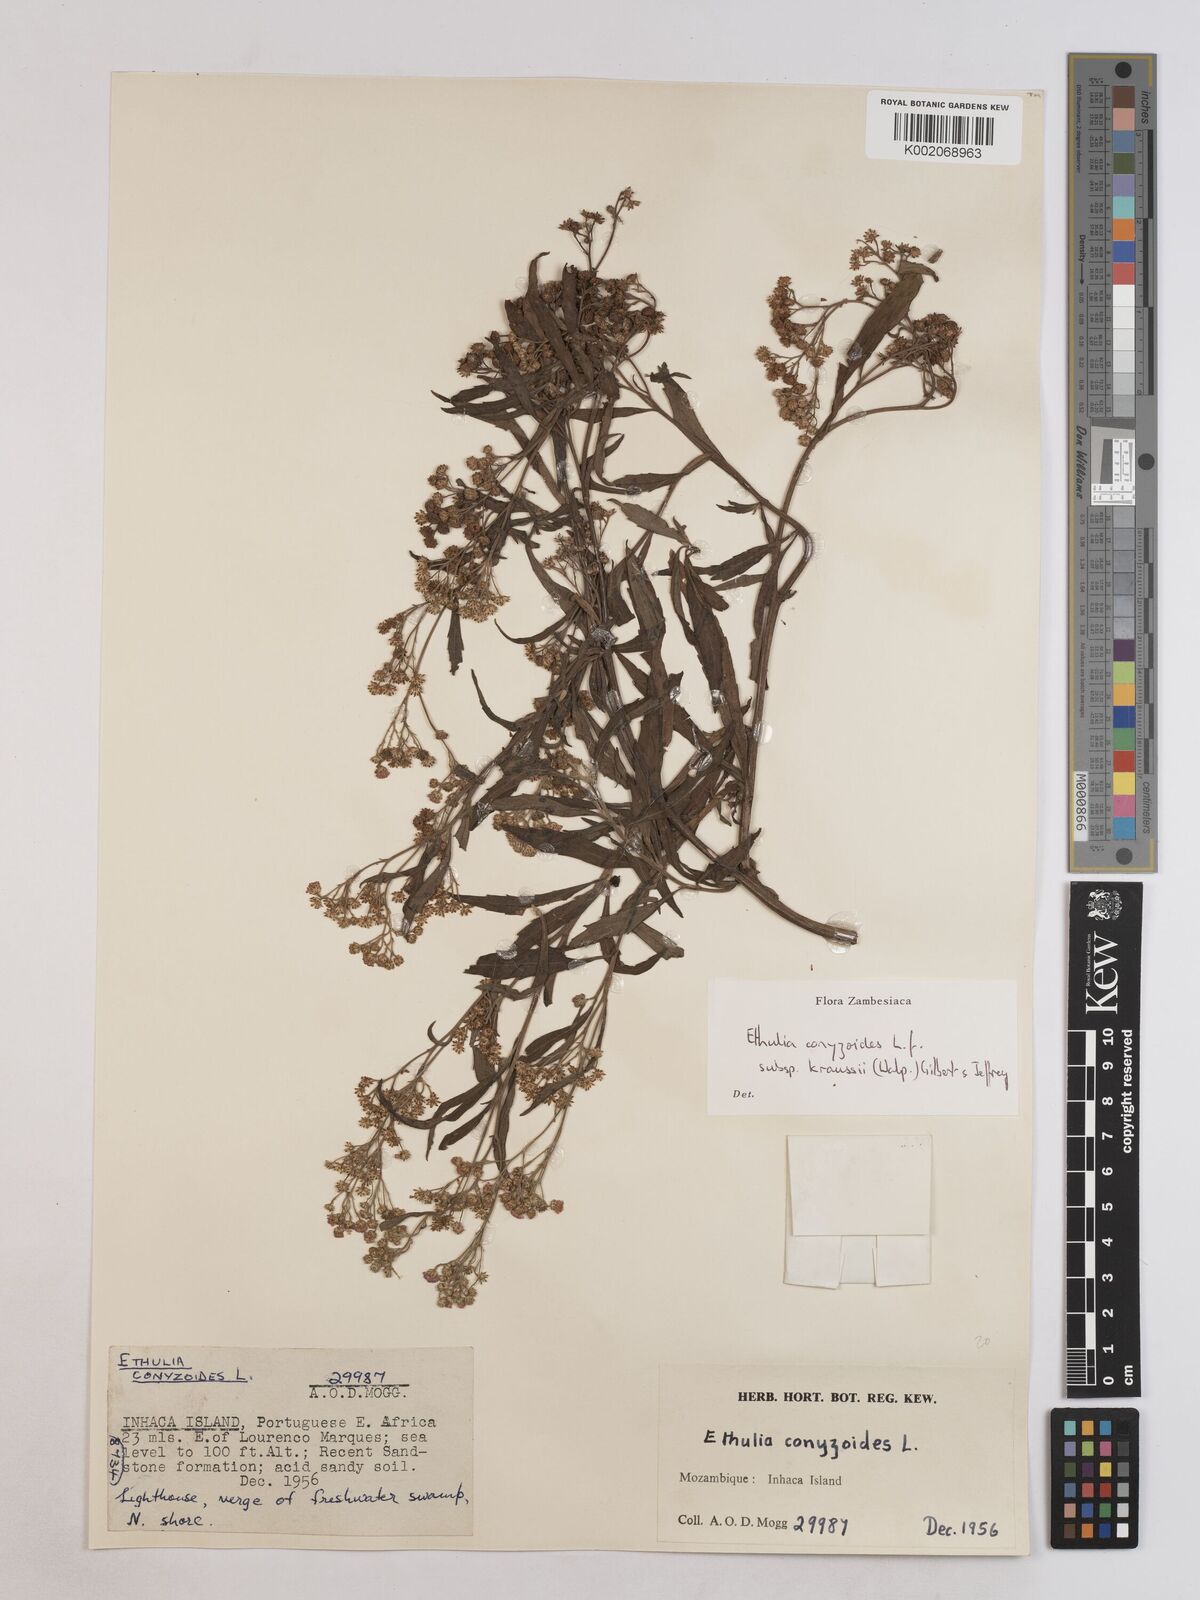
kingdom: Plantae
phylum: Tracheophyta
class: Magnoliopsida
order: Asterales
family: Asteraceae
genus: Ethulia
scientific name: Ethulia conyzoides
